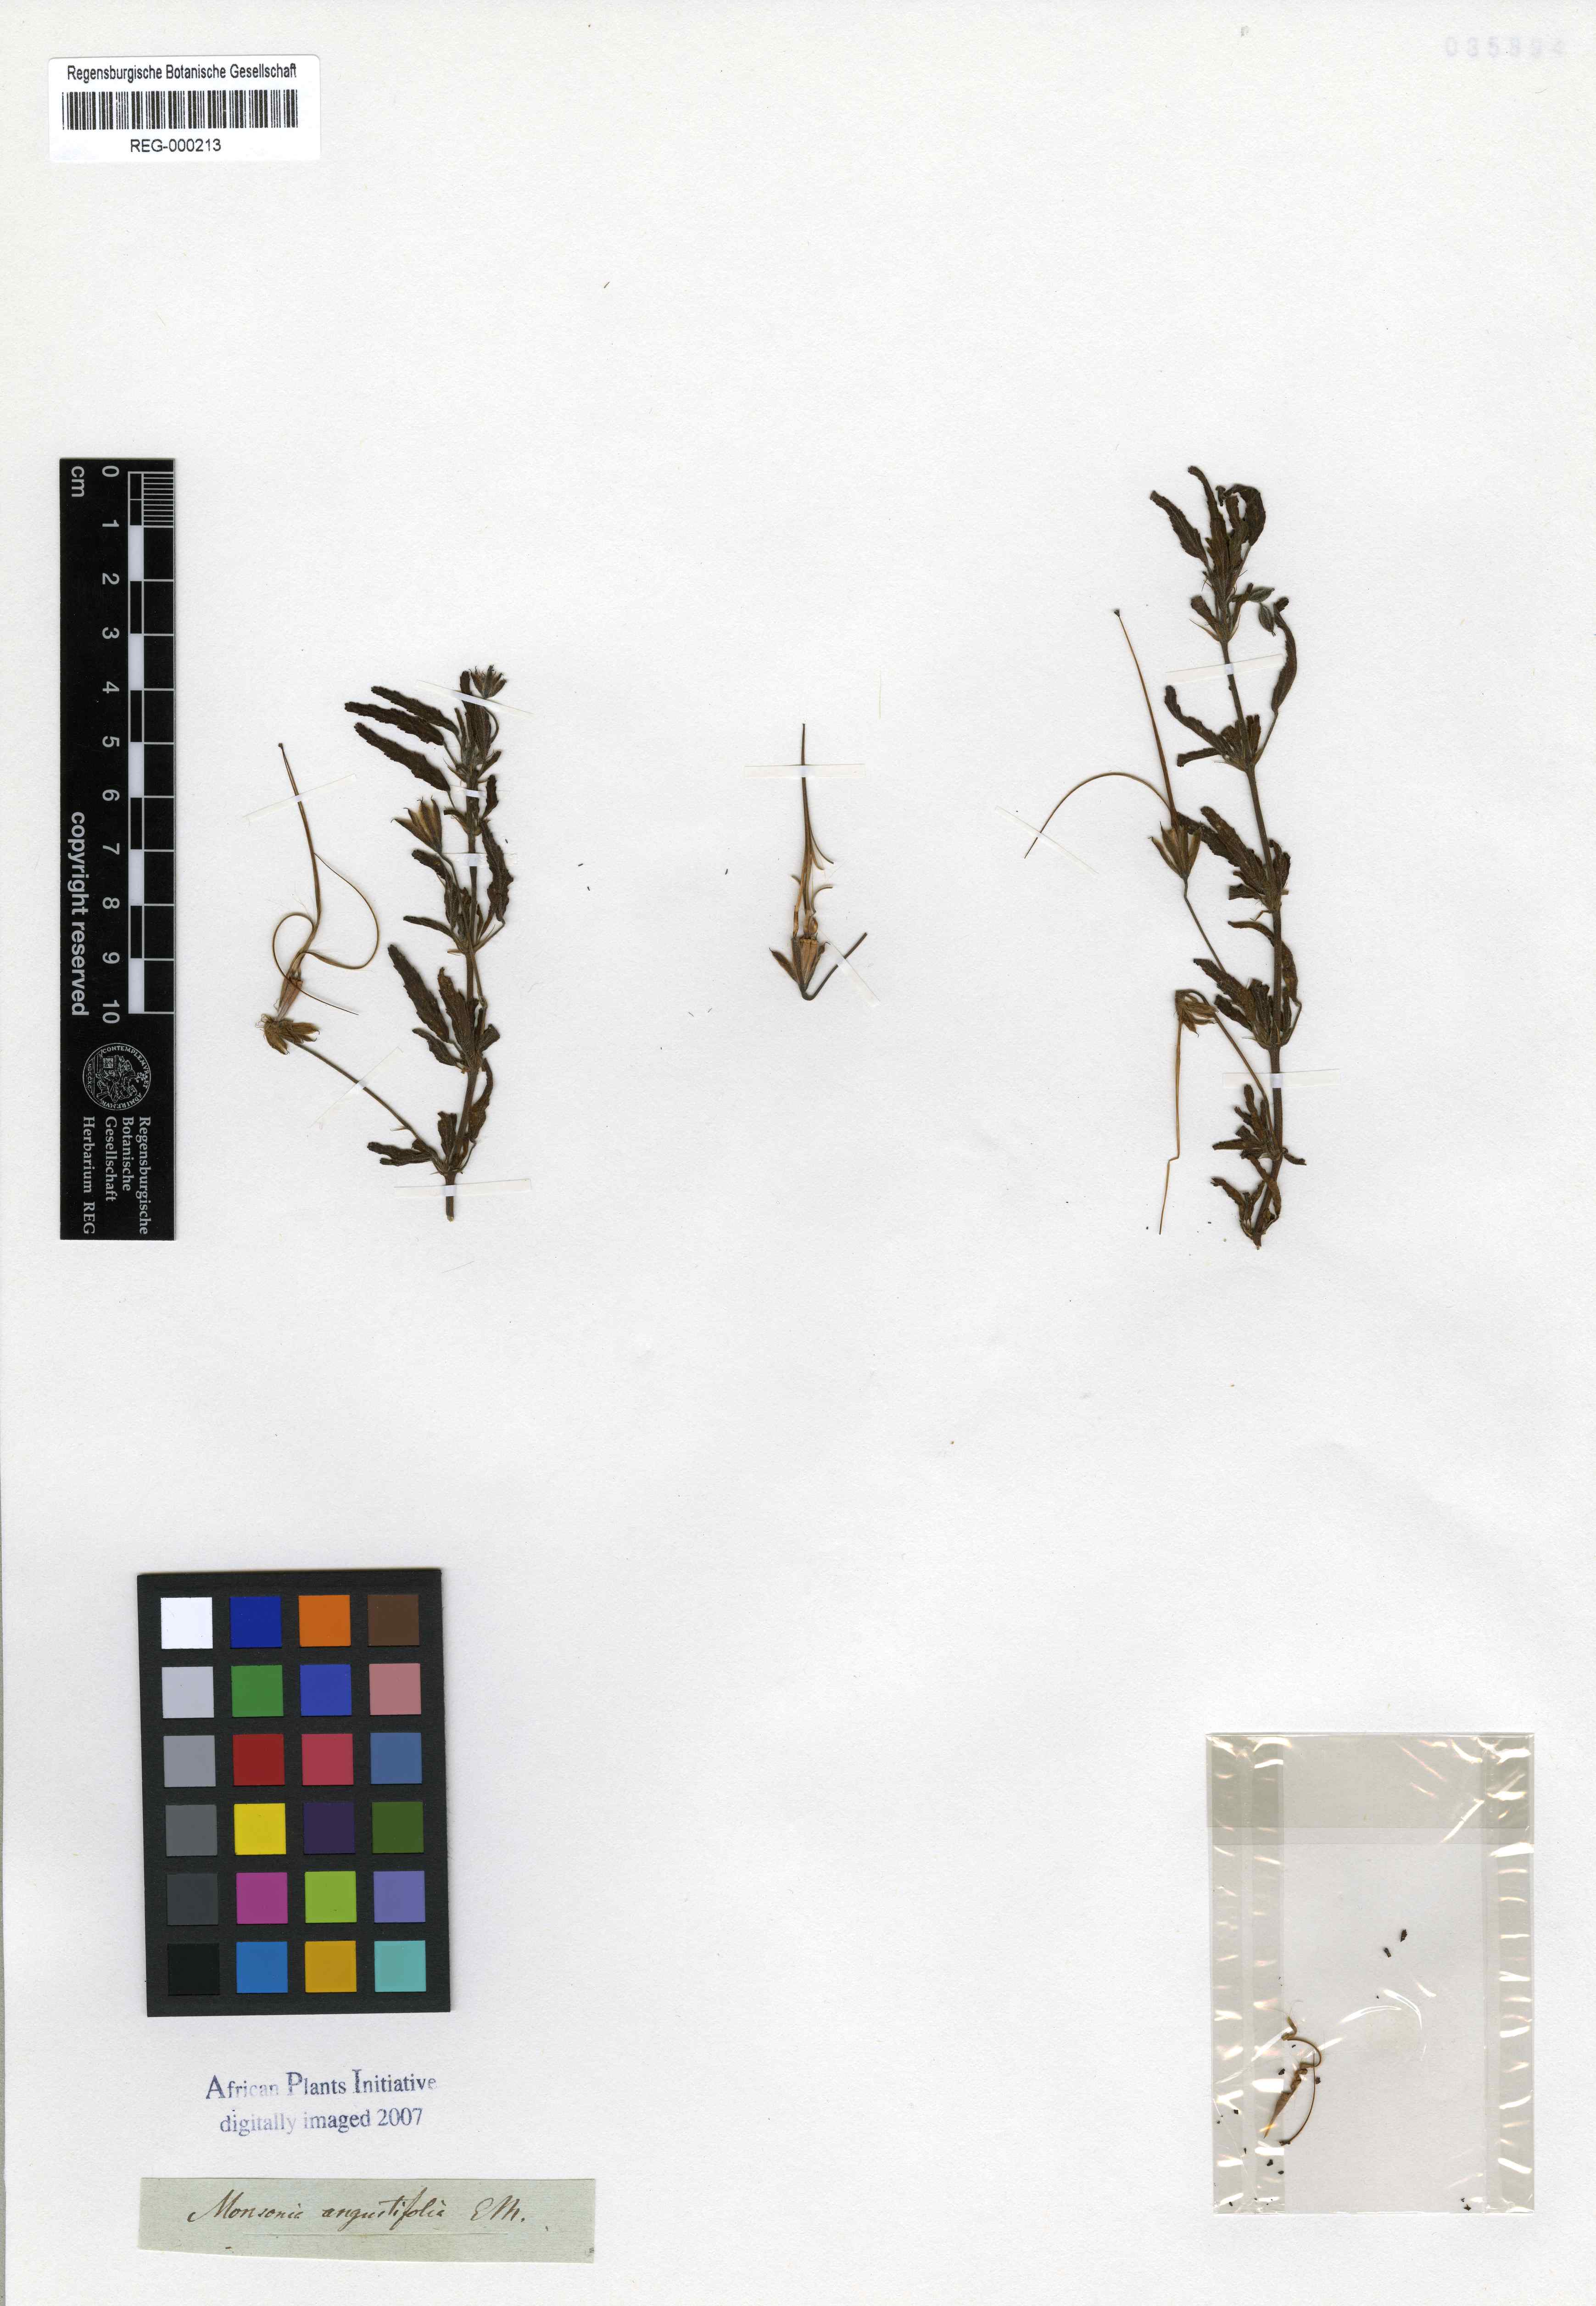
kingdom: Plantae
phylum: Tracheophyta
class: Magnoliopsida
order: Geraniales
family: Geraniaceae
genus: Monsonia
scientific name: Monsonia angustifolia
